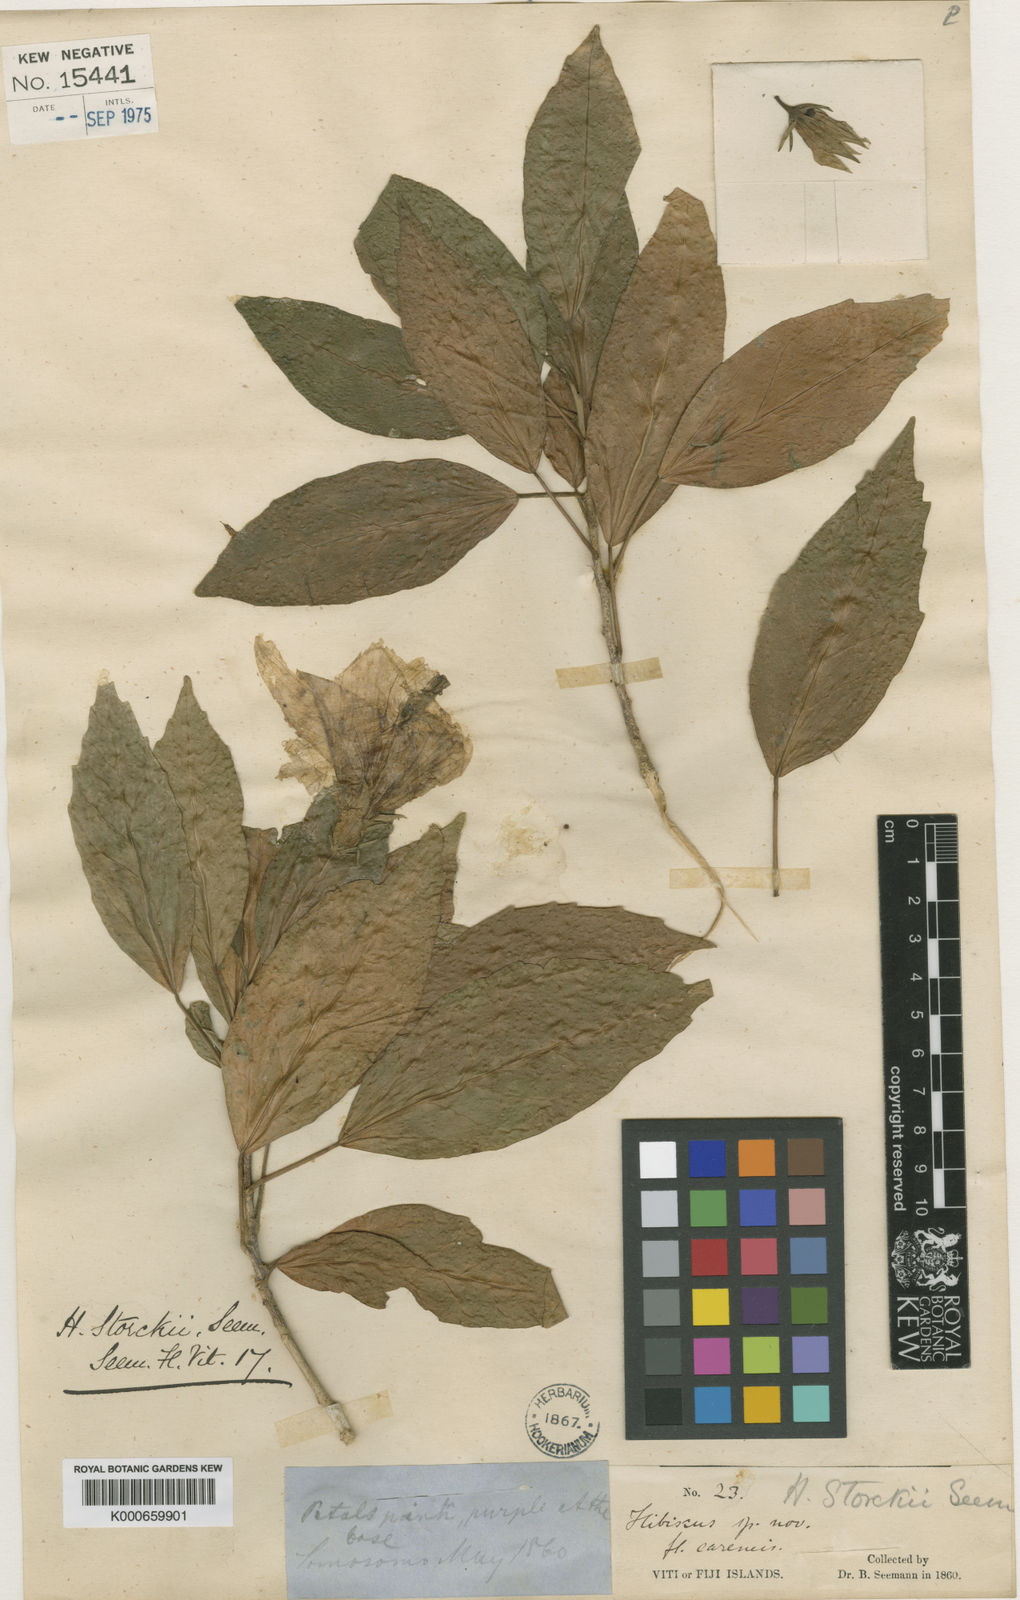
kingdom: Plantae
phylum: Tracheophyta
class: Magnoliopsida
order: Malvales
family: Malvaceae
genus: Hibiscus
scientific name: Hibiscus rosa-sinensis
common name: Hibiscus
